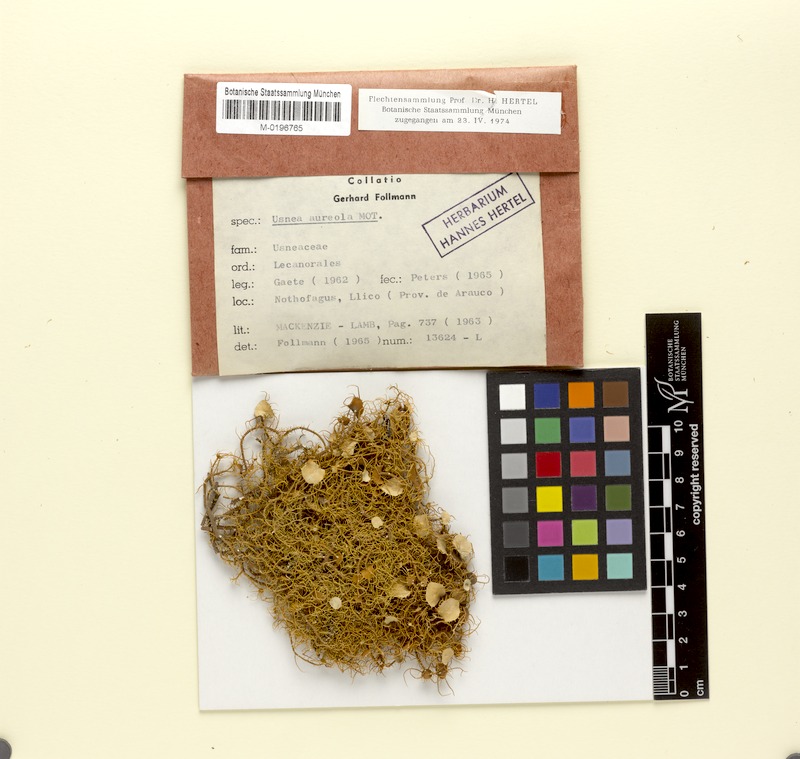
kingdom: Fungi
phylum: Ascomycota
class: Lecanoromycetes
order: Lecanorales
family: Parmeliaceae
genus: Usnea
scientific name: Usnea aureola
